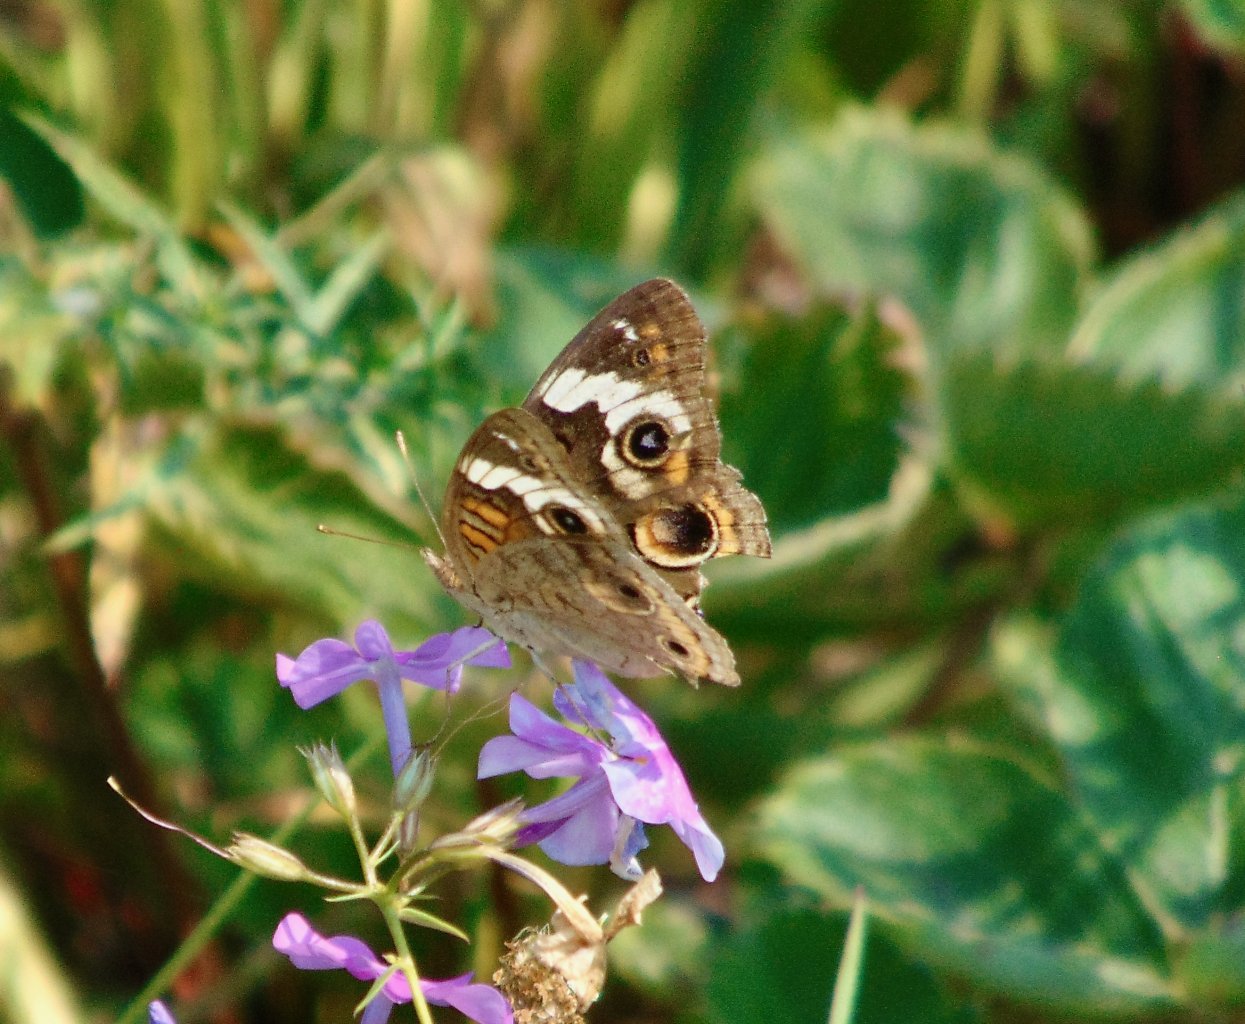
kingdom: Animalia
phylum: Arthropoda
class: Insecta
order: Lepidoptera
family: Nymphalidae
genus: Junonia
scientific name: Junonia coenia
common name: Common Buckeye
